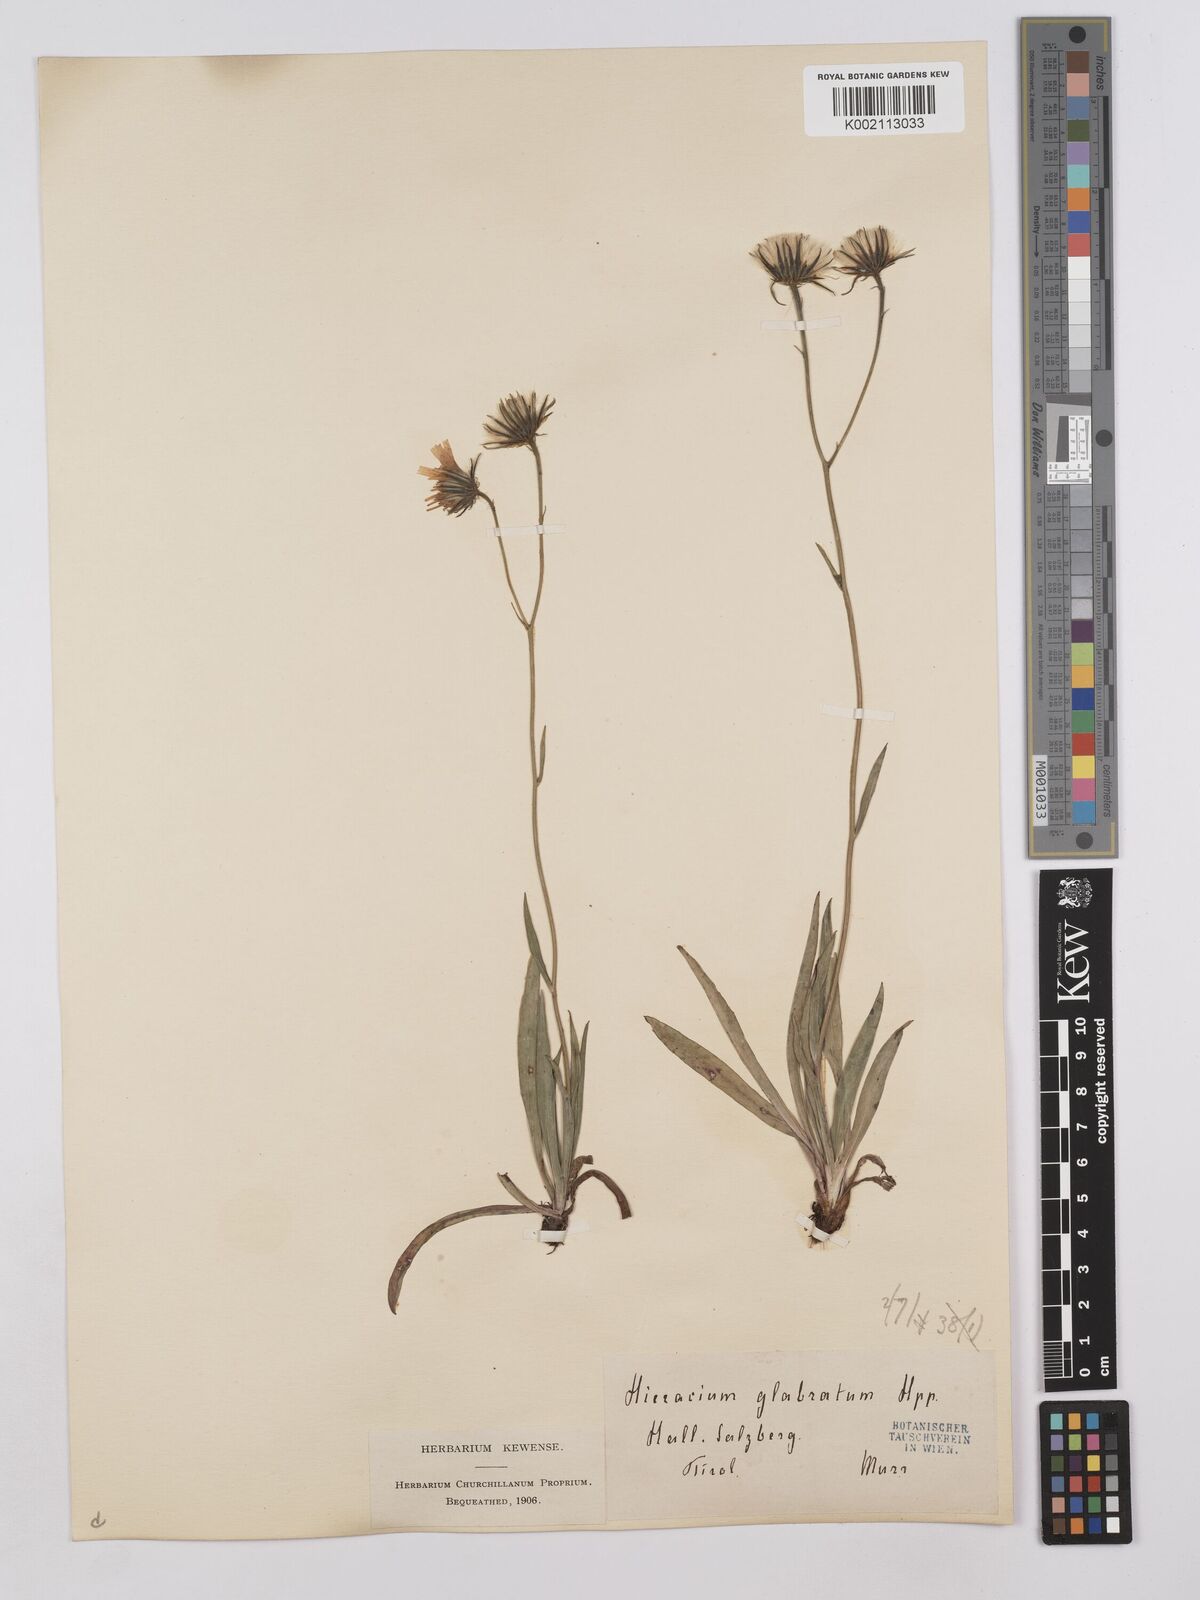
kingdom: Plantae
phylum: Tracheophyta
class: Magnoliopsida
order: Asterales
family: Asteraceae
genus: Hieracium
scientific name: Hieracium bupleuroides
